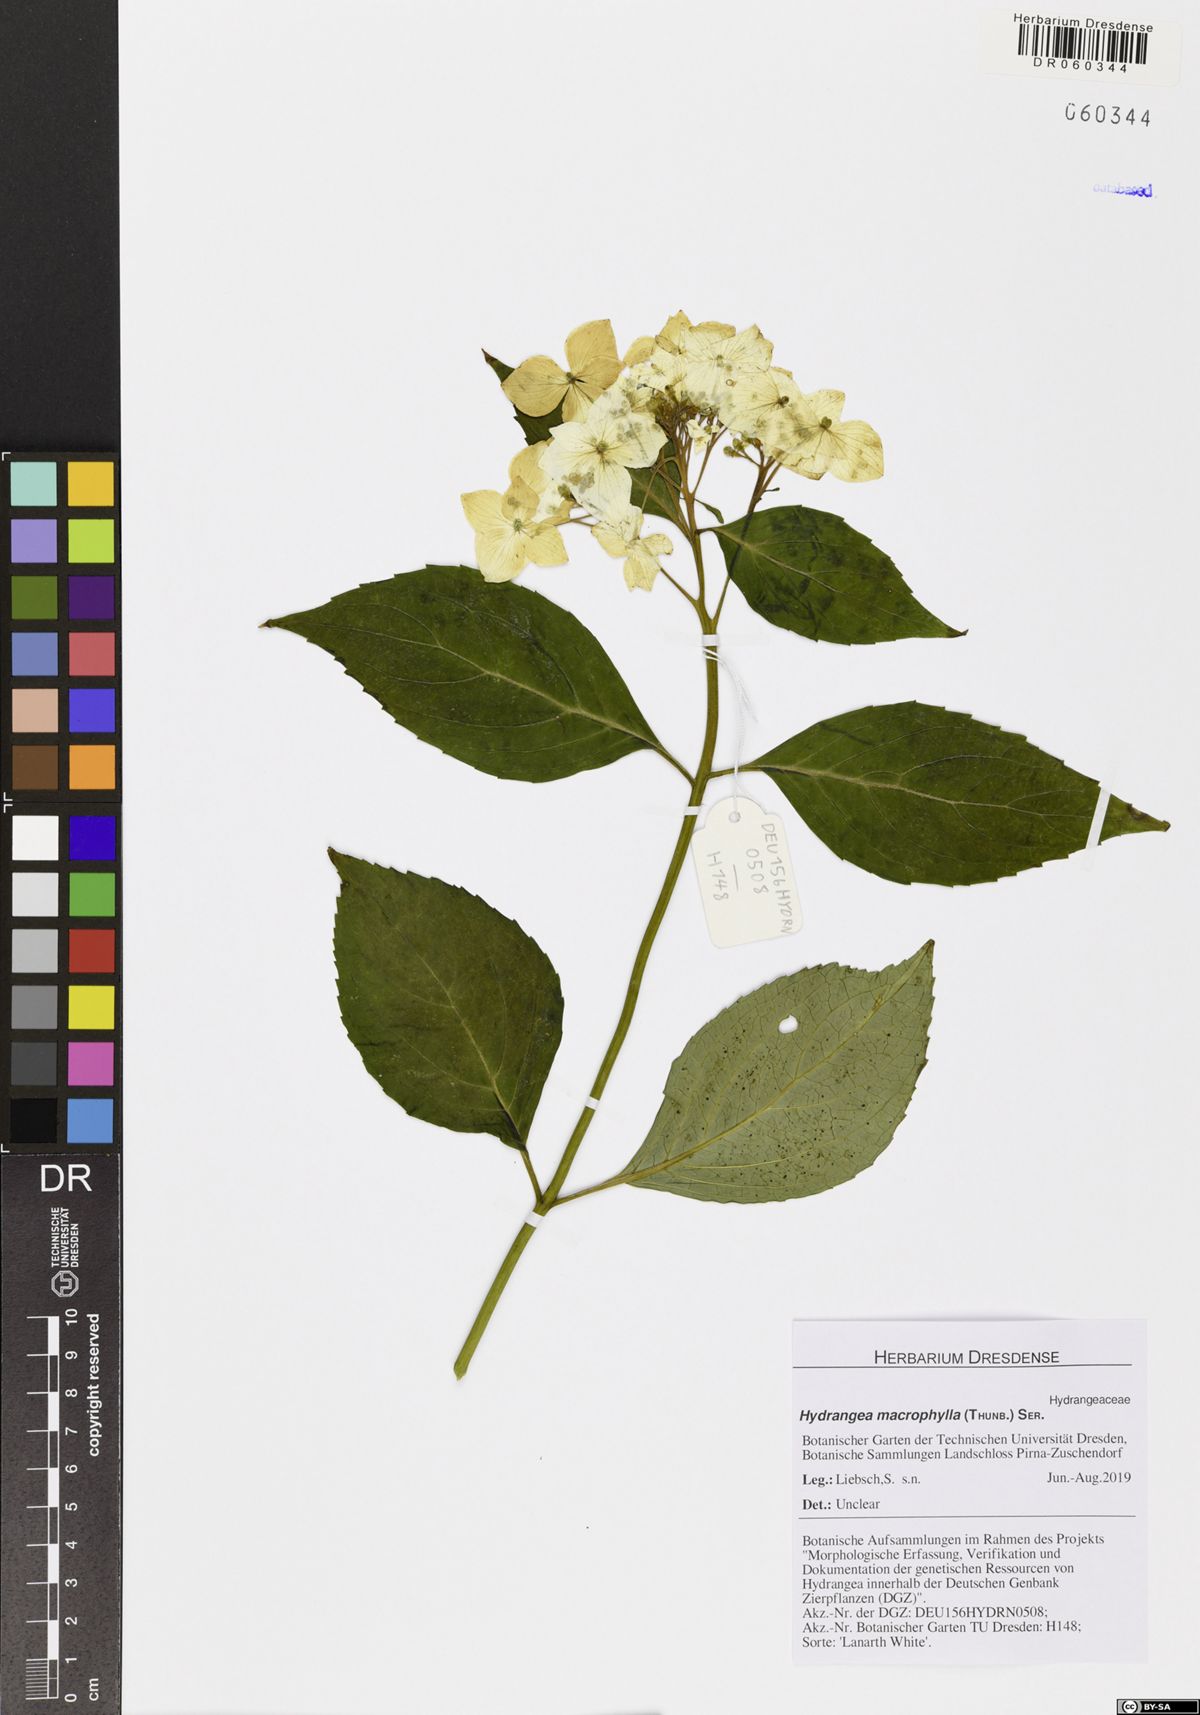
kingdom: Plantae
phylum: Tracheophyta
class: Magnoliopsida
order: Cornales
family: Hydrangeaceae
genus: Hydrangea
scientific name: Hydrangea macrophylla
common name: Hydrangea
